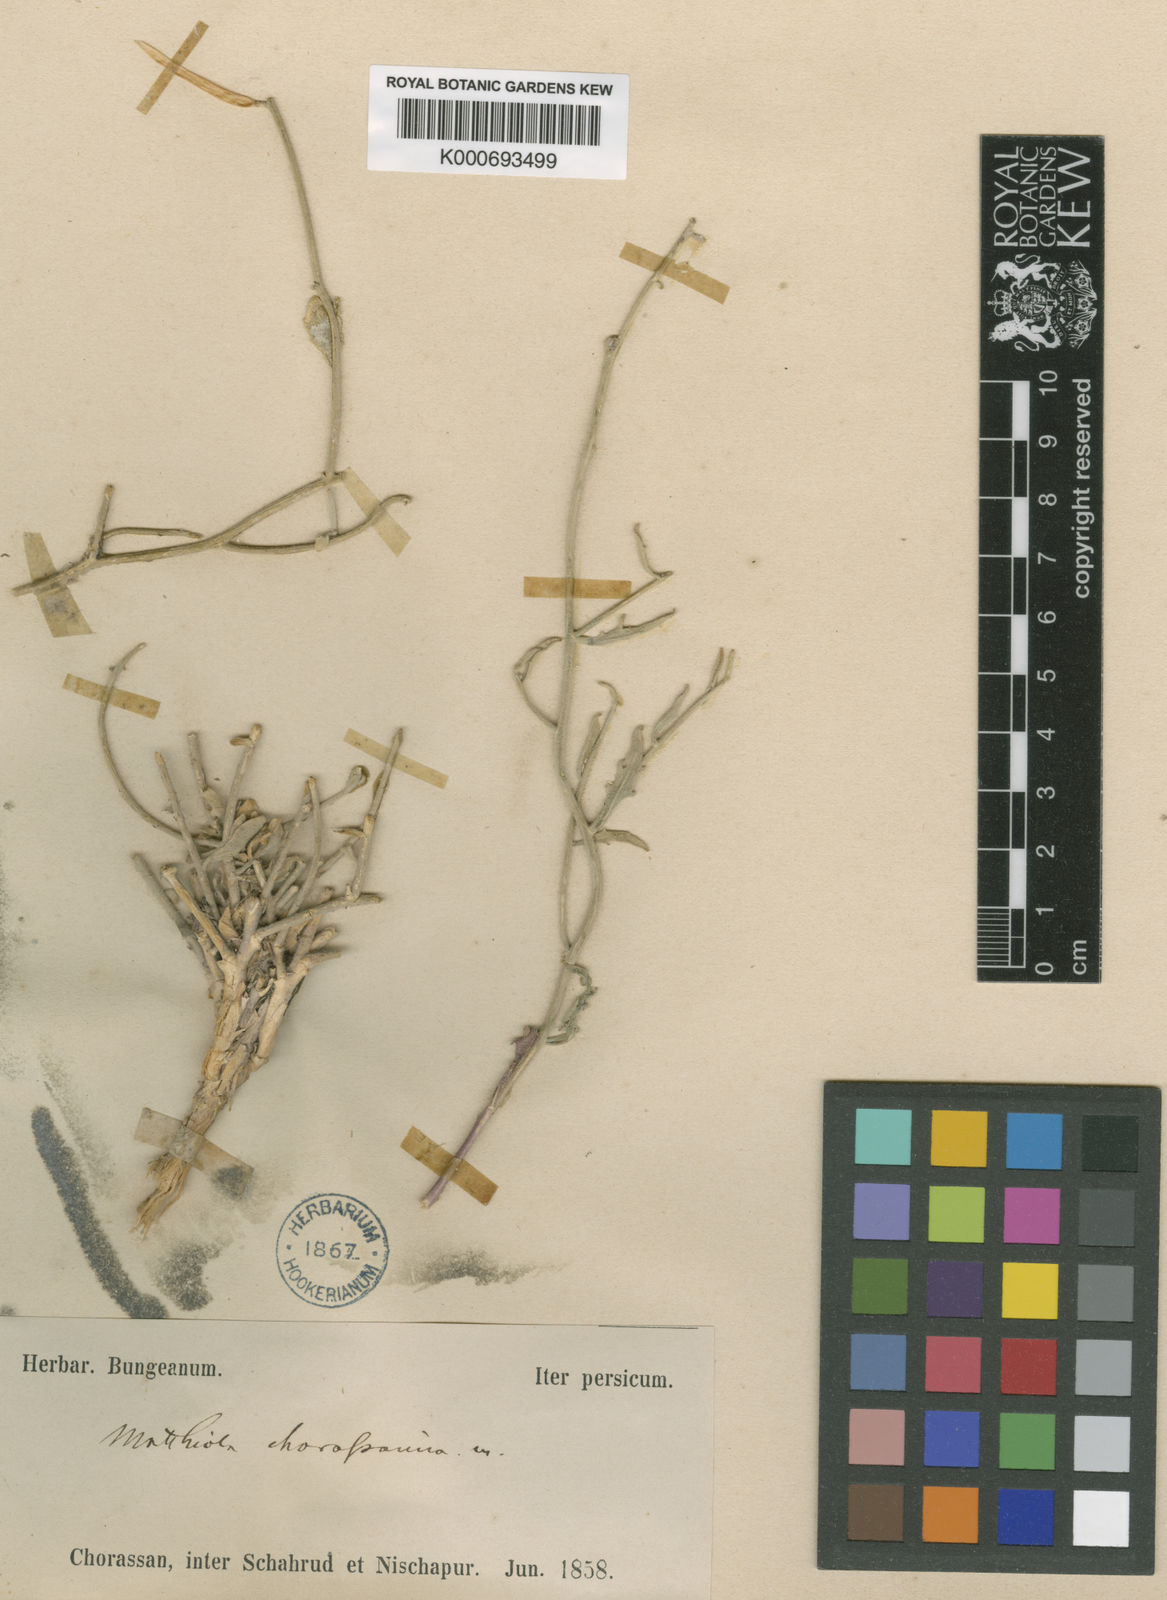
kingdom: Plantae
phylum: Tracheophyta
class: Magnoliopsida
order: Brassicales
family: Brassicaceae
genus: Matthiola
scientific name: Matthiola chorassanica
